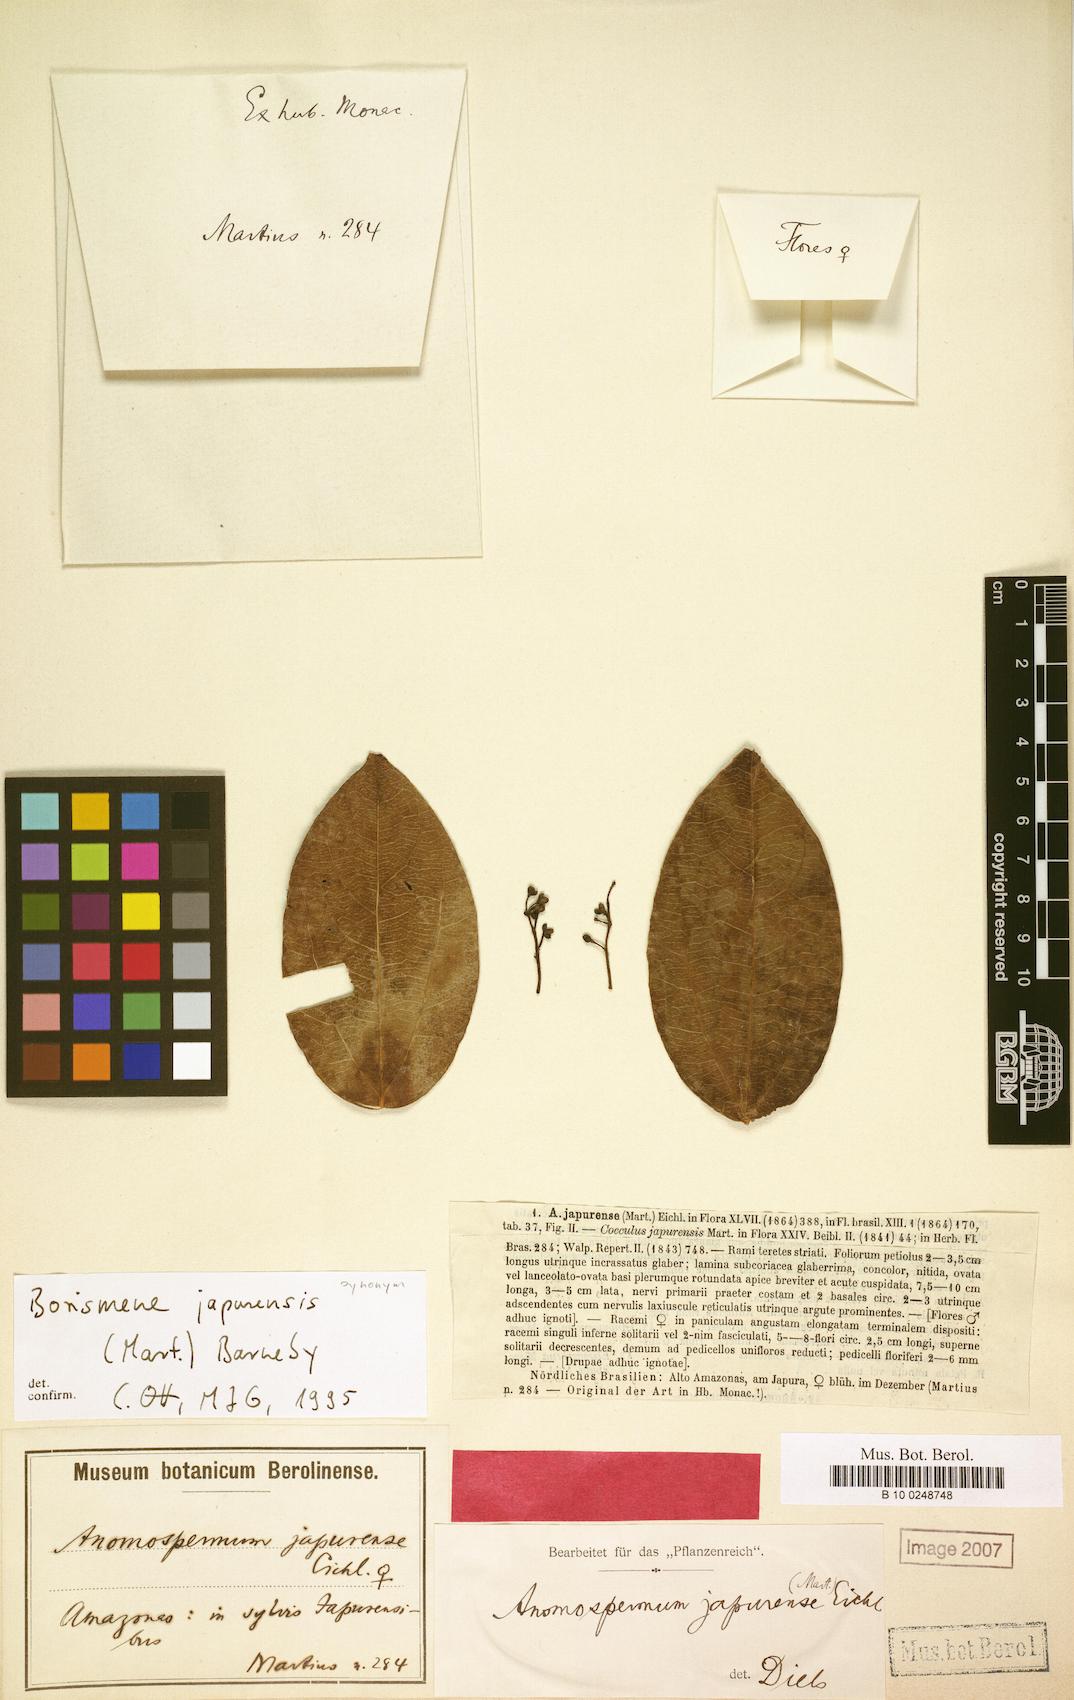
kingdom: Plantae
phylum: Tracheophyta
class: Magnoliopsida
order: Ranunculales
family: Menispermaceae
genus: Borismene
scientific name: Borismene japurensis
